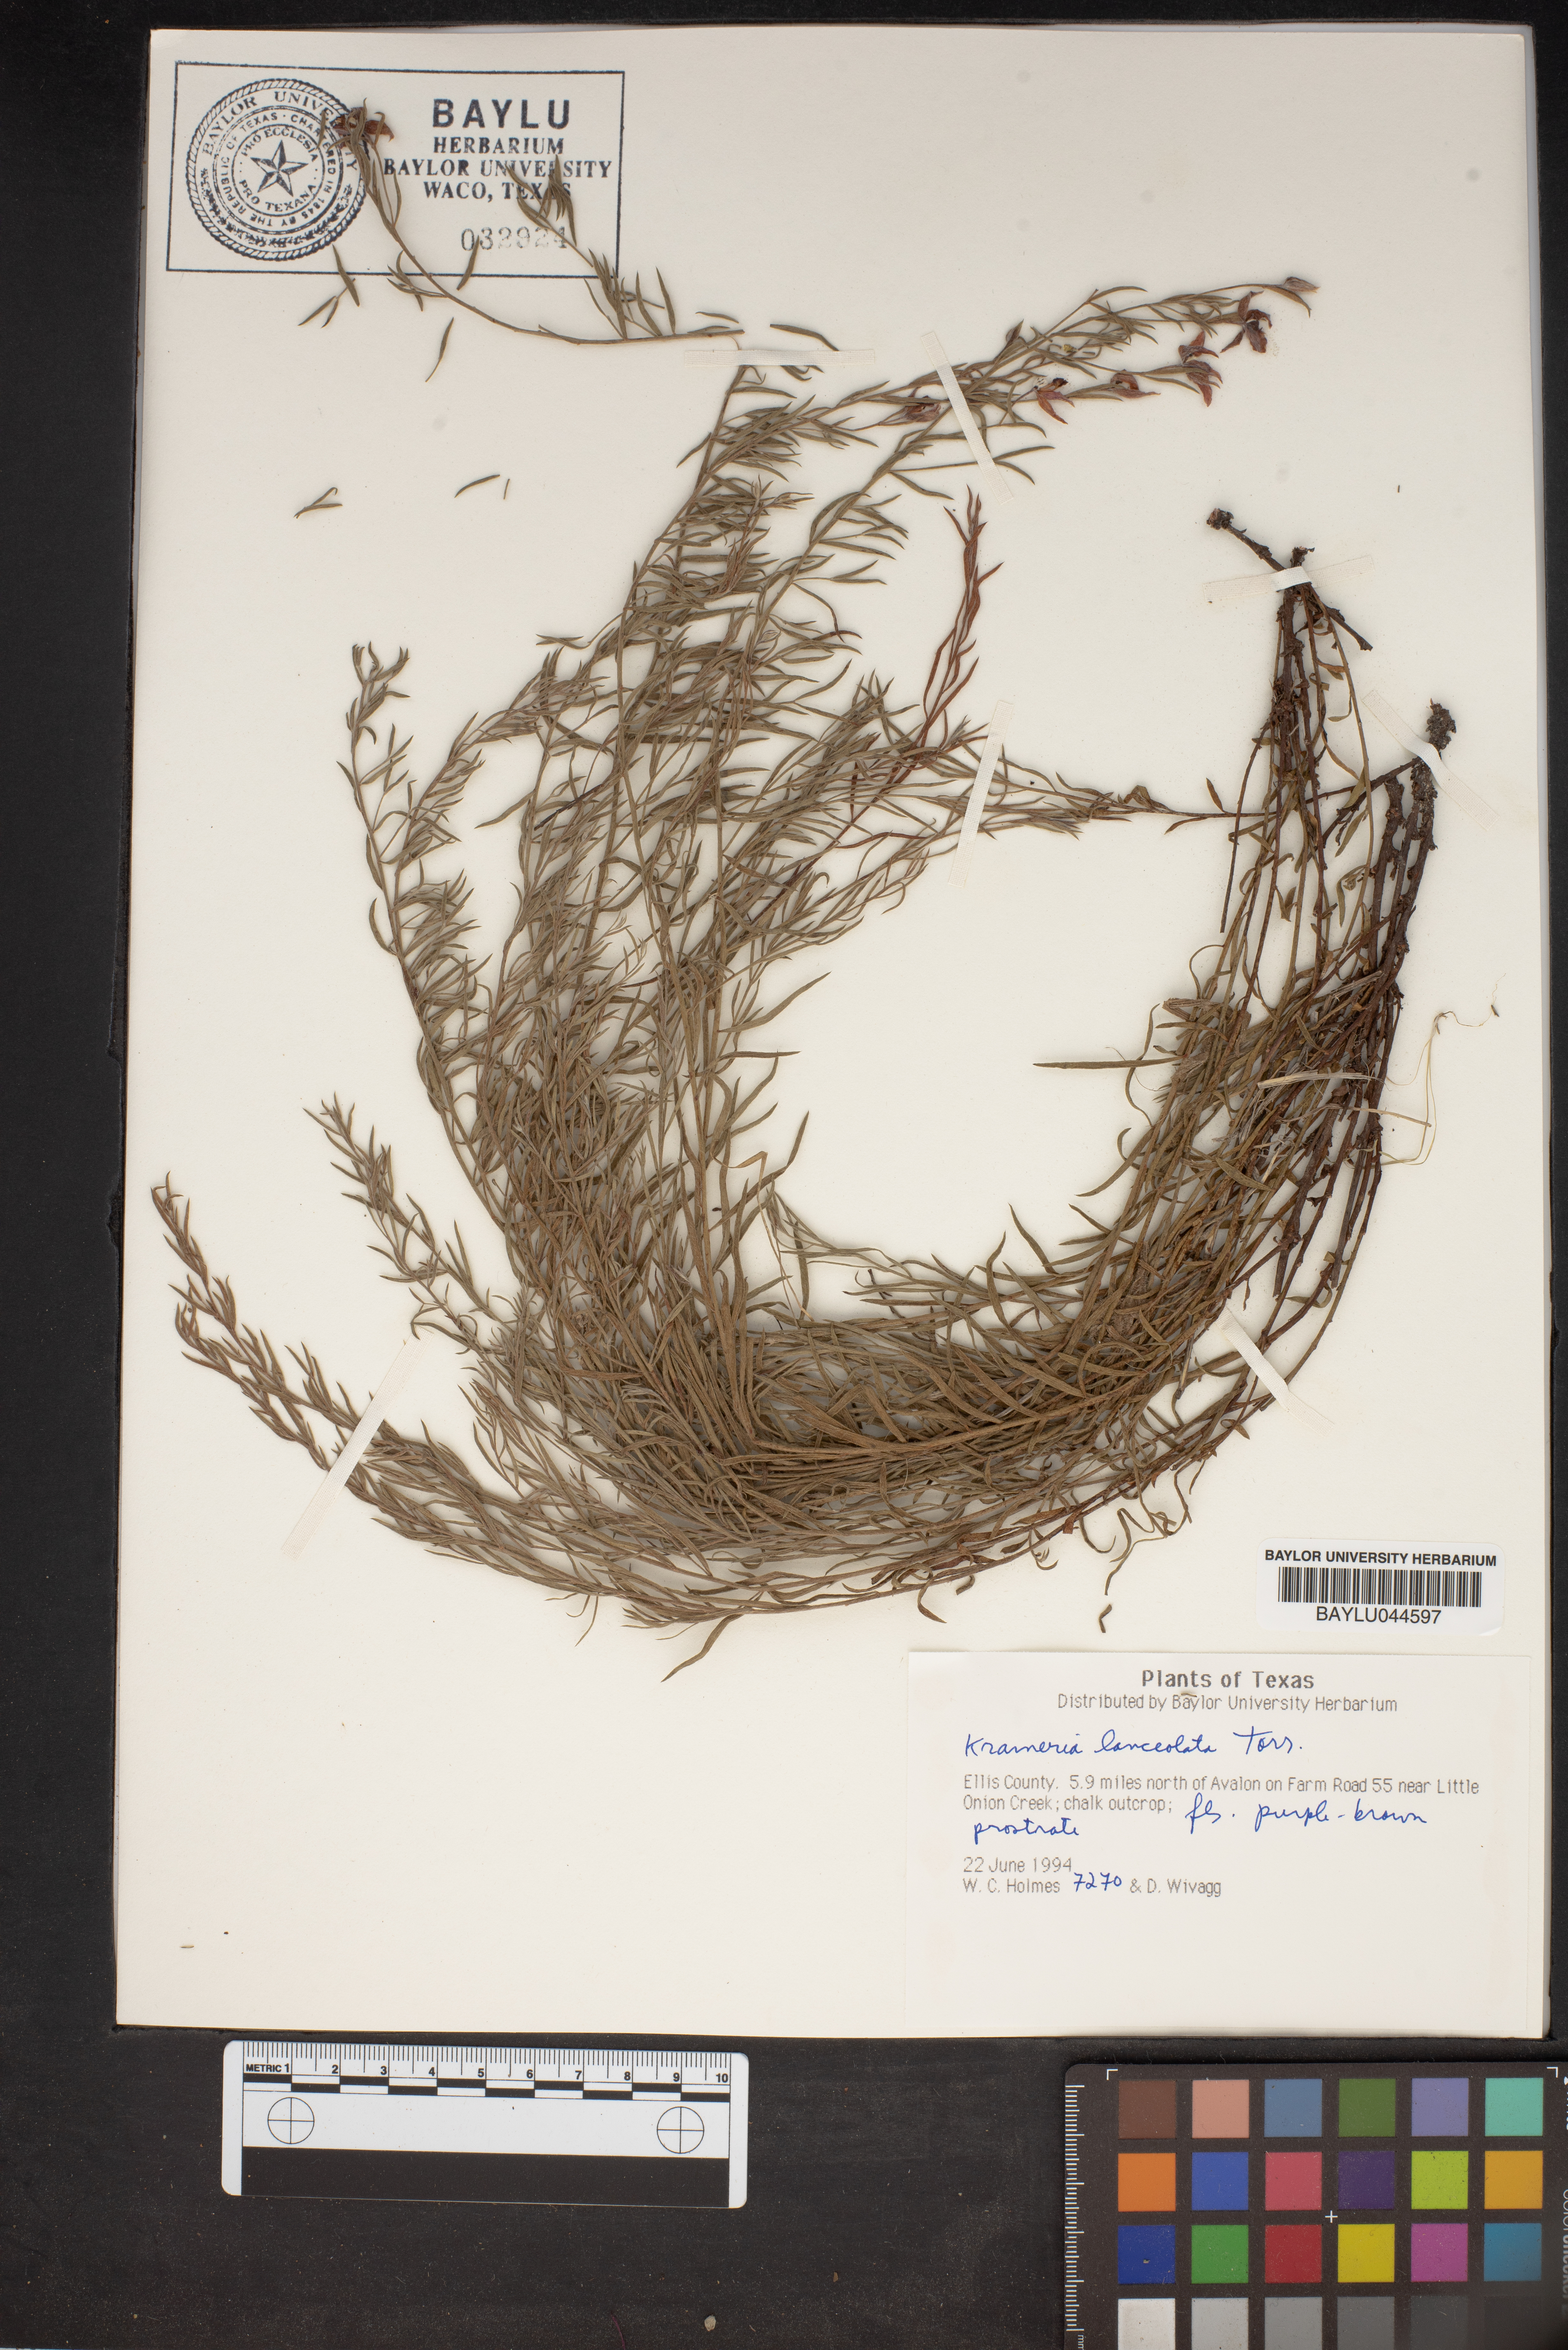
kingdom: Plantae
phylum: Tracheophyta
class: Magnoliopsida
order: Zygophyllales
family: Krameriaceae
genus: Krameria
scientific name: Krameria lanceolata
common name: Ratany
